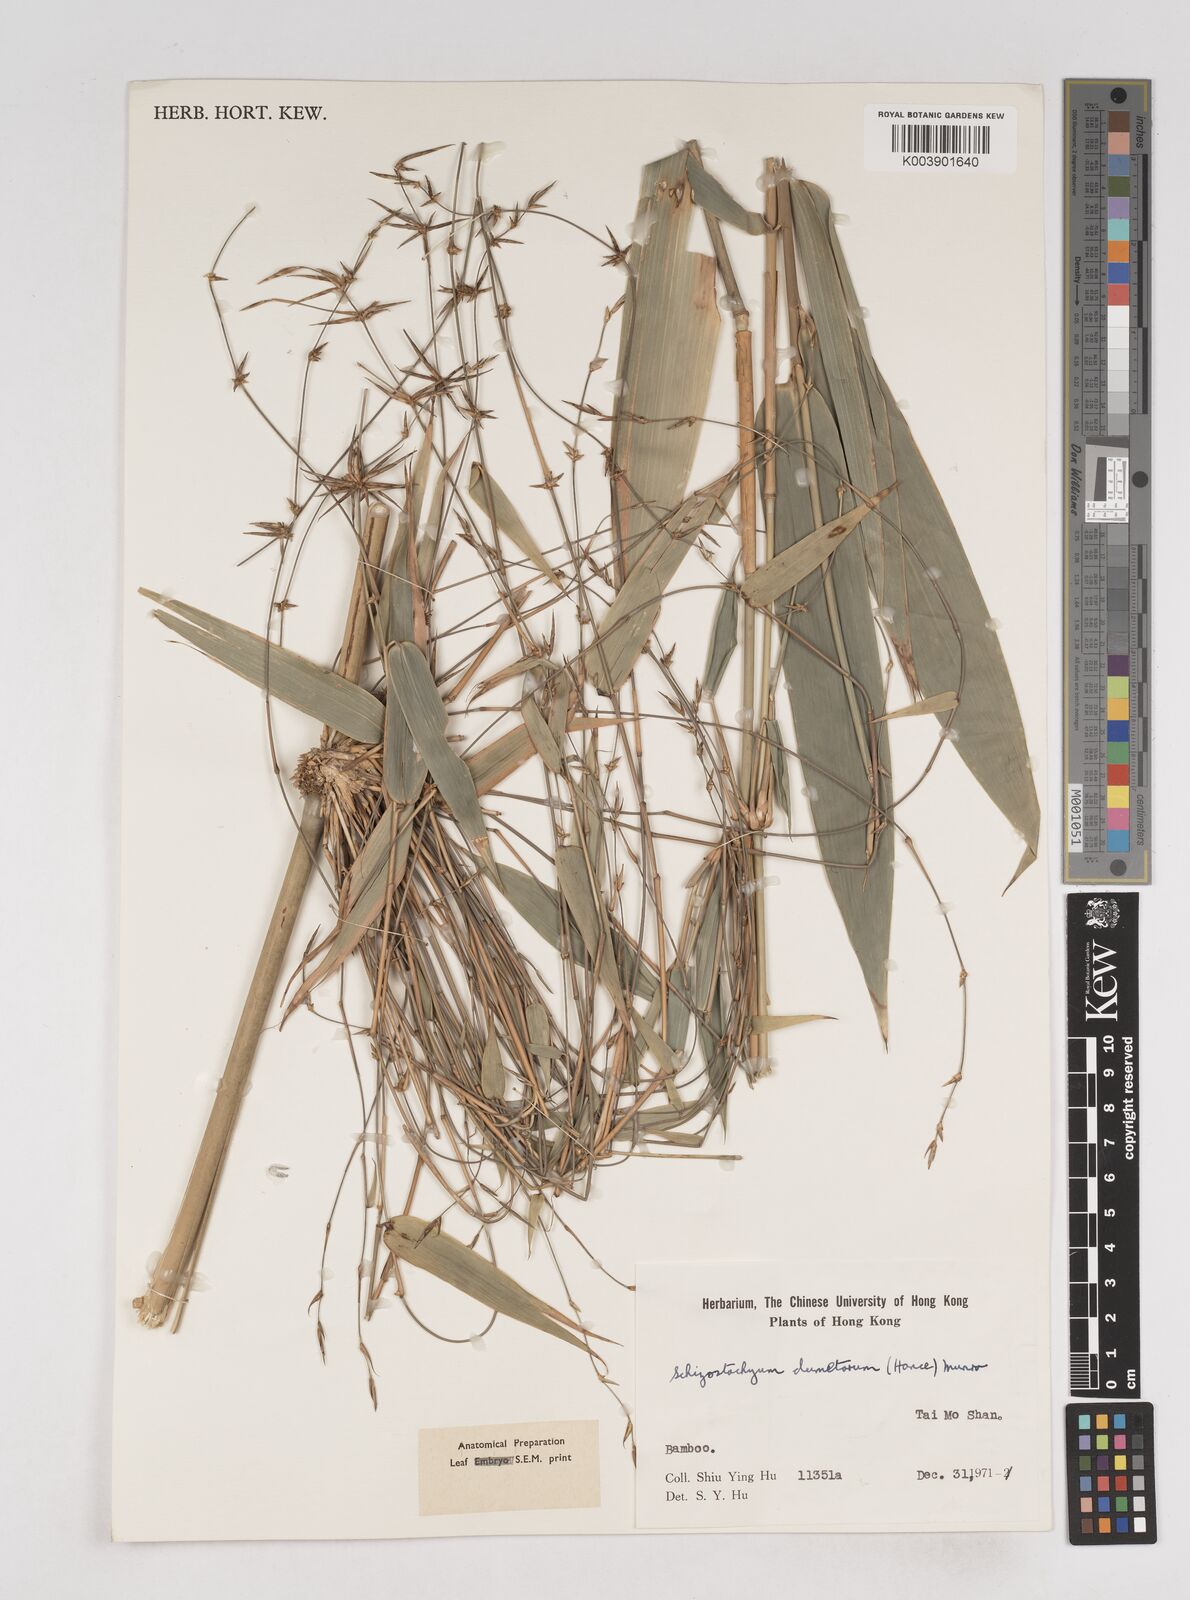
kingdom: Plantae
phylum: Tracheophyta
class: Liliopsida
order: Poales
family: Poaceae
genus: Schizostachyum
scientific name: Schizostachyum dumetorum
